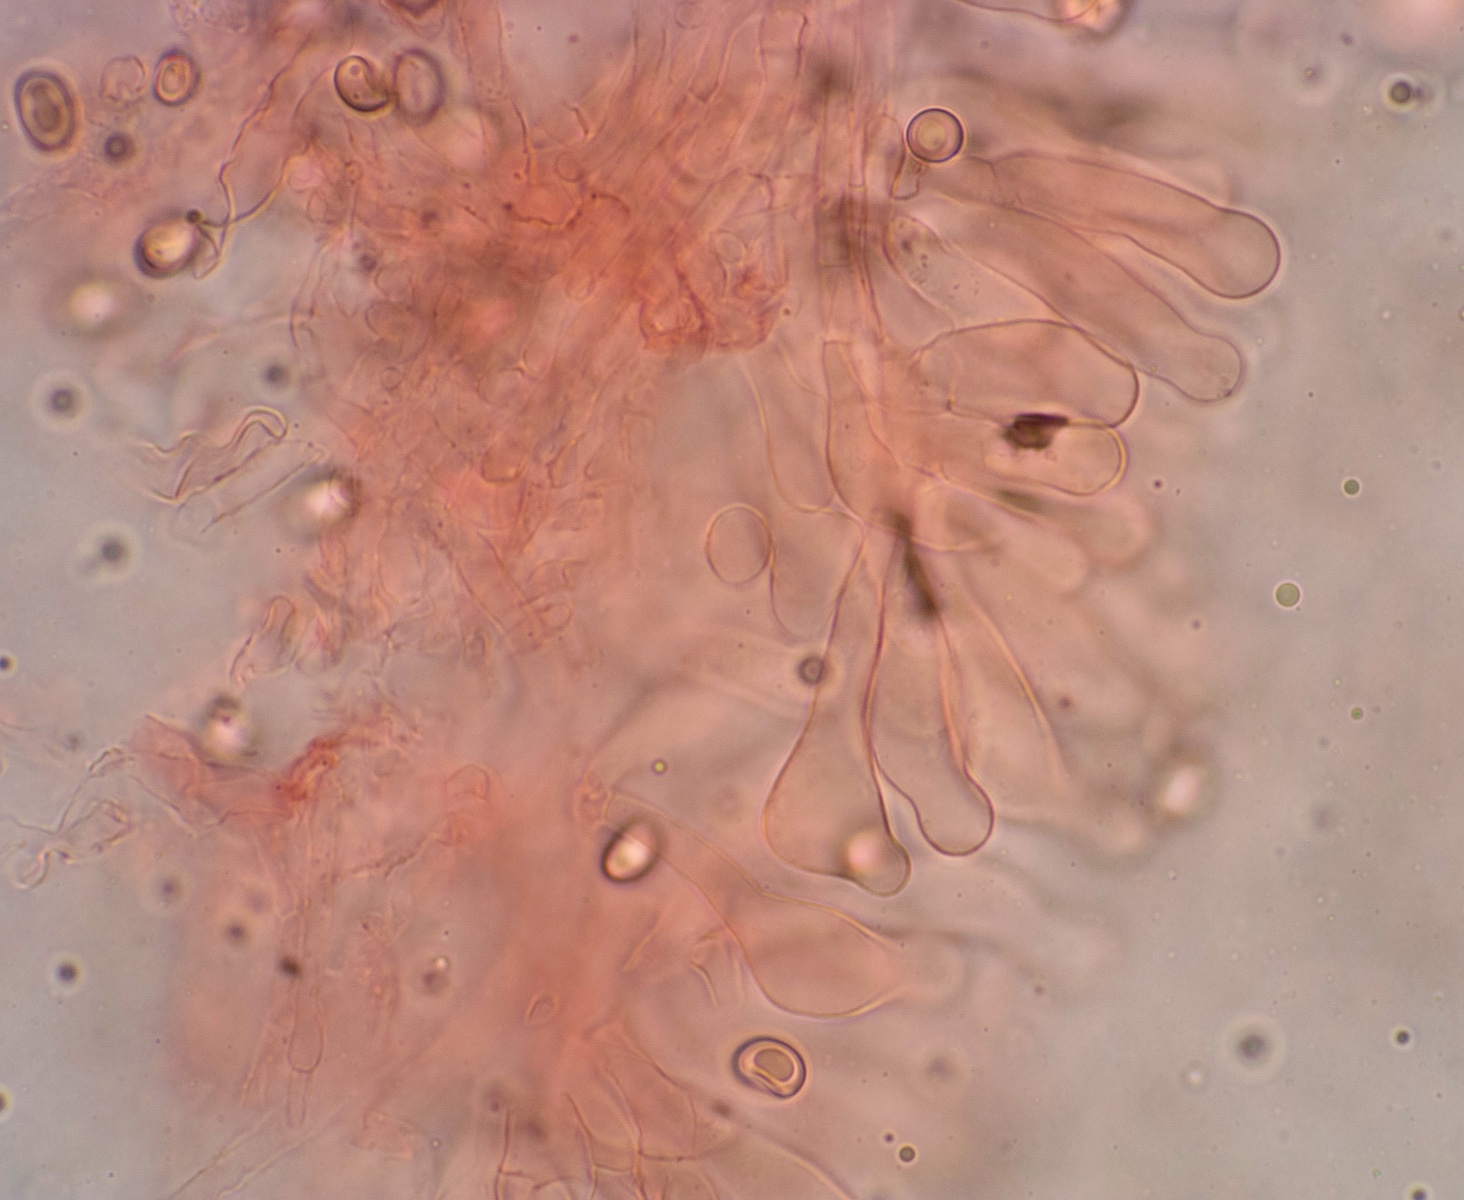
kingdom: Fungi
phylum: Basidiomycota
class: Agaricomycetes
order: Agaricales
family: Agaricaceae
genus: Leucoagaricus
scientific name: Leucoagaricus leucothites
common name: rosabladet silkehat
